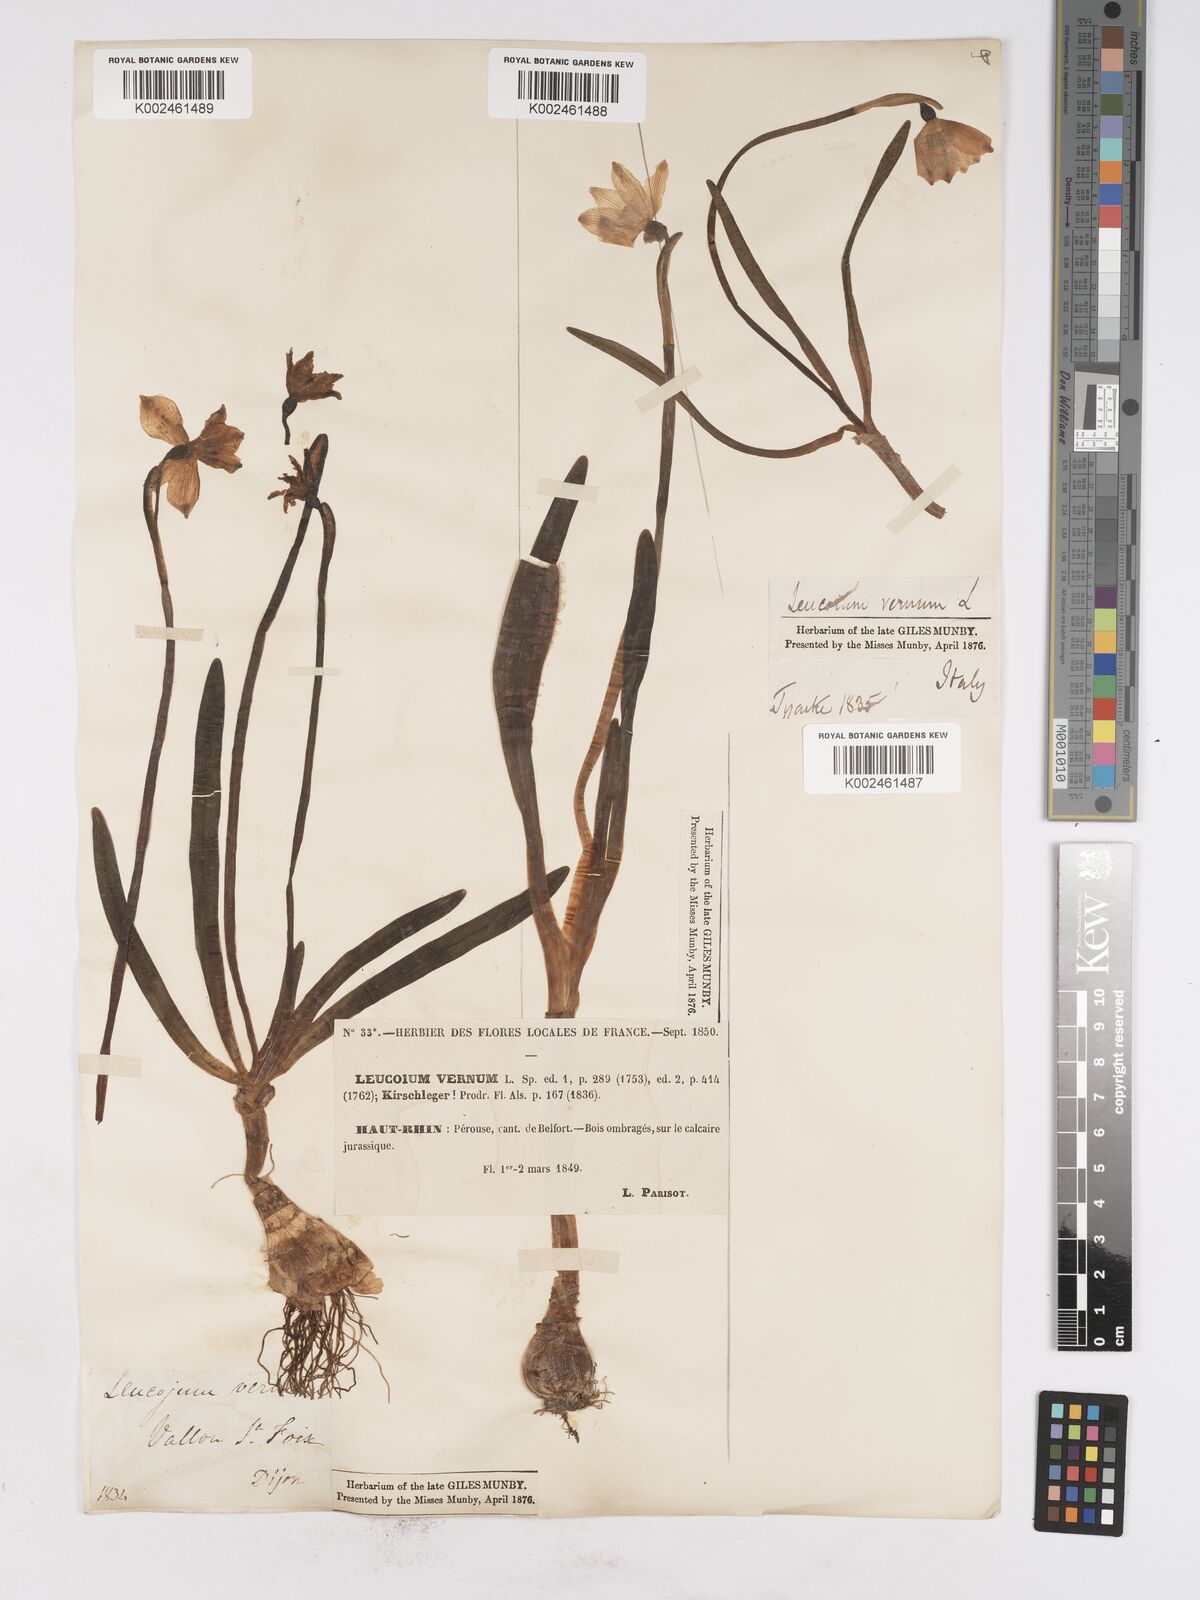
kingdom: Plantae
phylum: Tracheophyta
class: Liliopsida
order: Asparagales
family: Amaryllidaceae
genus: Leucojum
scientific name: Leucojum vernum
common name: Spring snowflake
